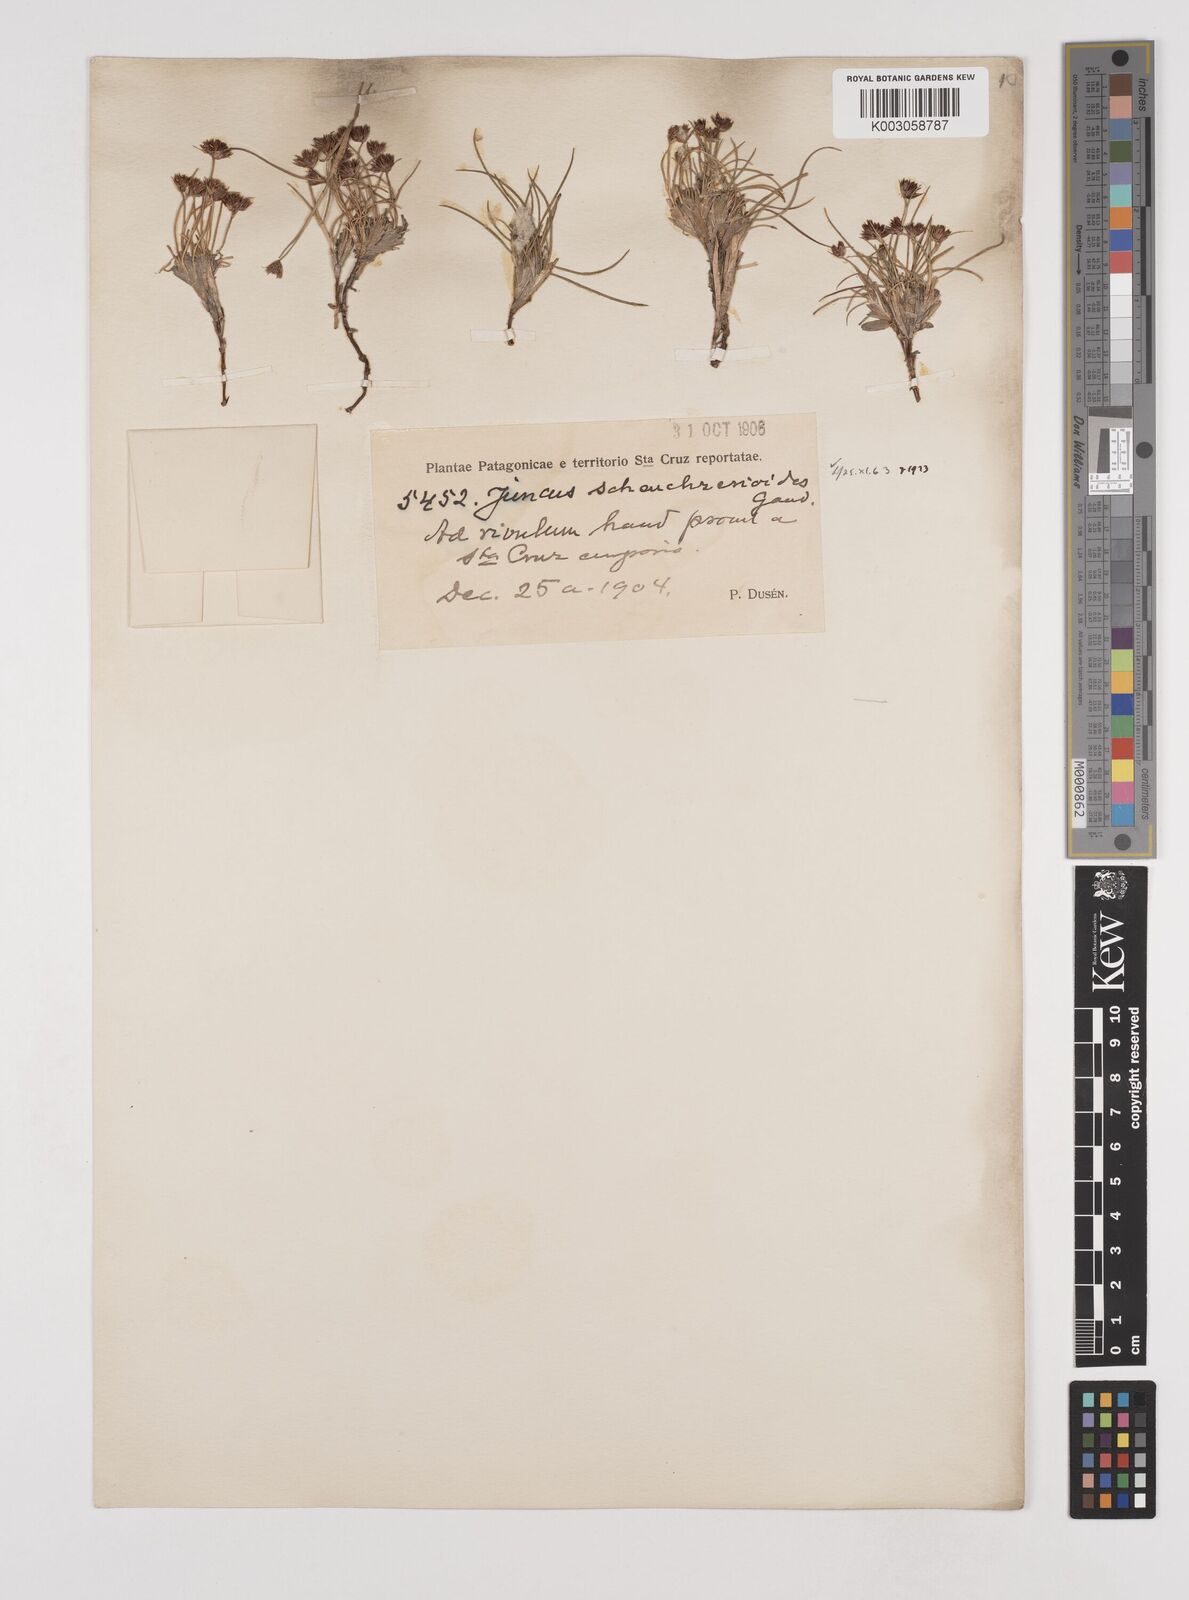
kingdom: Plantae
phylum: Tracheophyta
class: Liliopsida
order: Poales
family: Juncaceae
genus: Juncus
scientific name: Juncus scheuchzerioides
